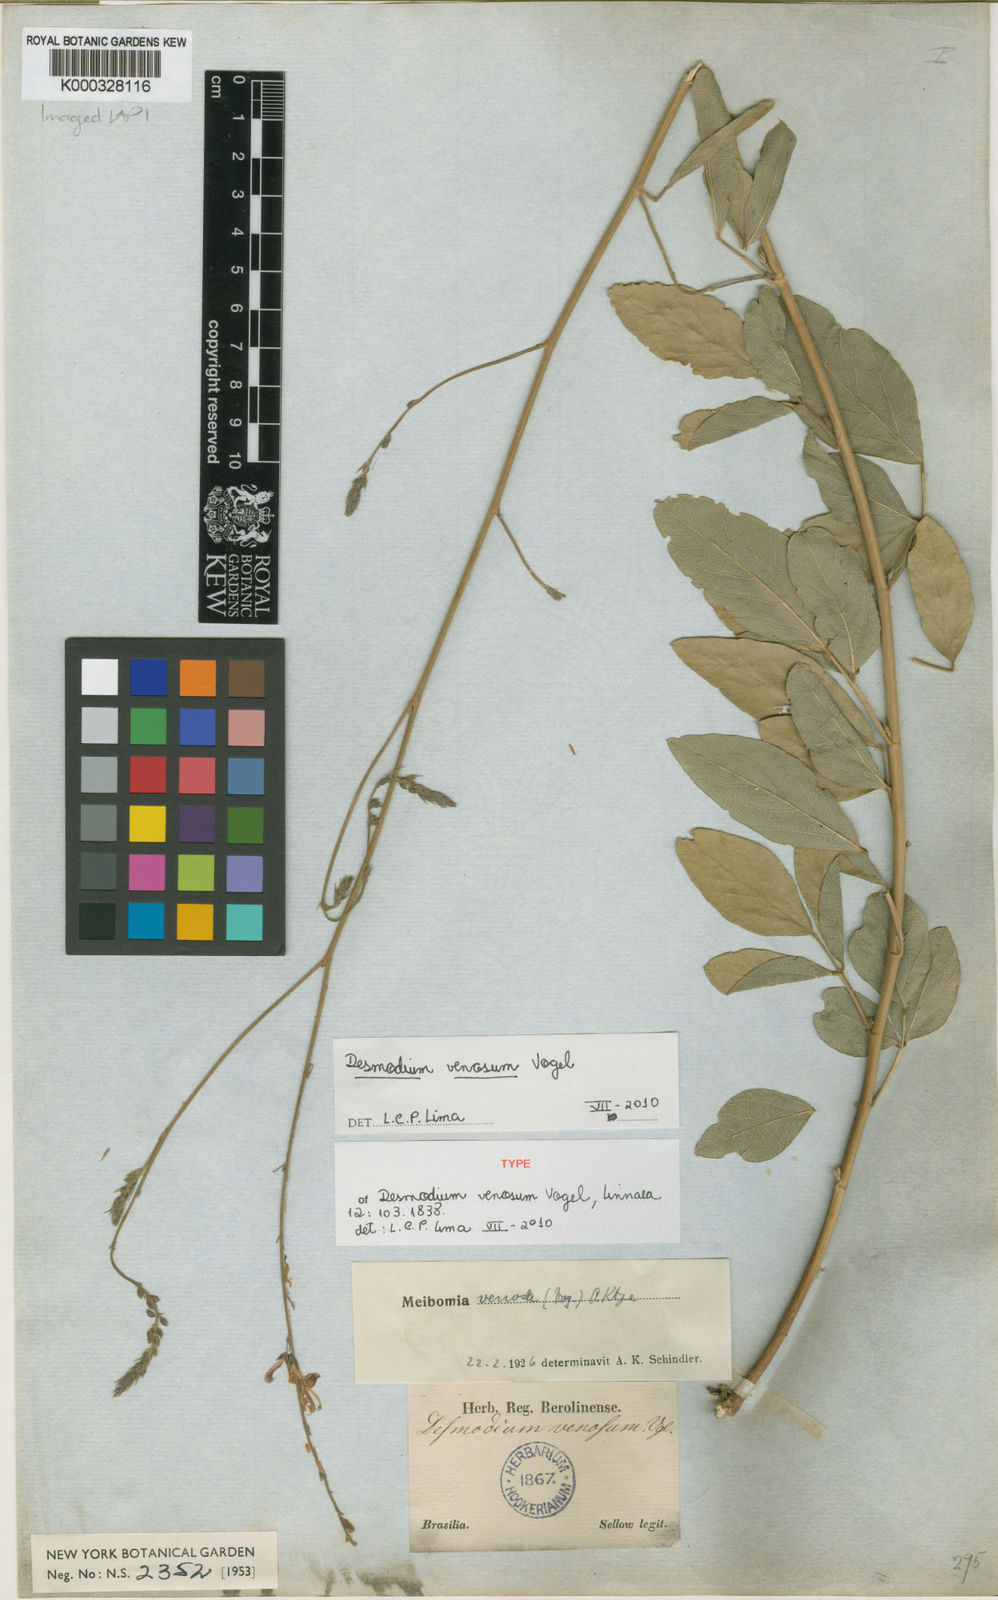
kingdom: Plantae
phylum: Tracheophyta
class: Magnoliopsida
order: Fabales
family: Fabaceae
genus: Desmodium
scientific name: Desmodium venosum
